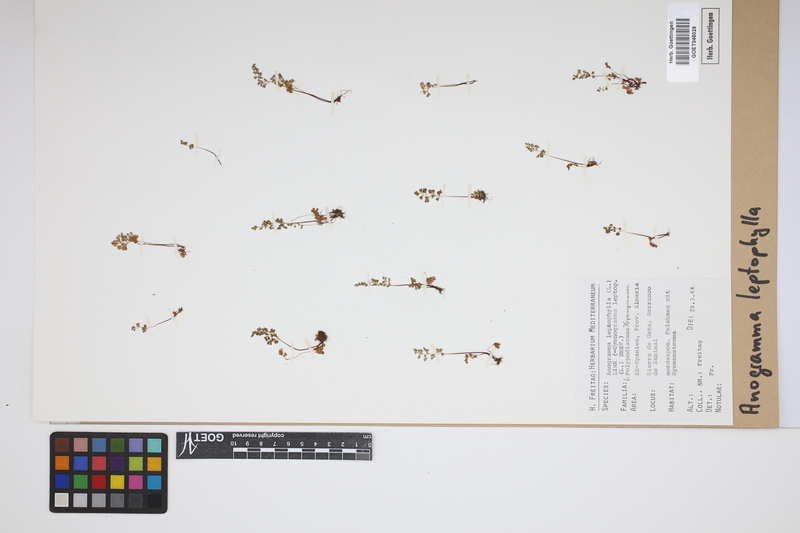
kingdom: Plantae
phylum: Tracheophyta
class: Polypodiopsida
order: Polypodiales
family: Pteridaceae
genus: Anogramma
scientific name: Anogramma leptophylla
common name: Jersey fern
